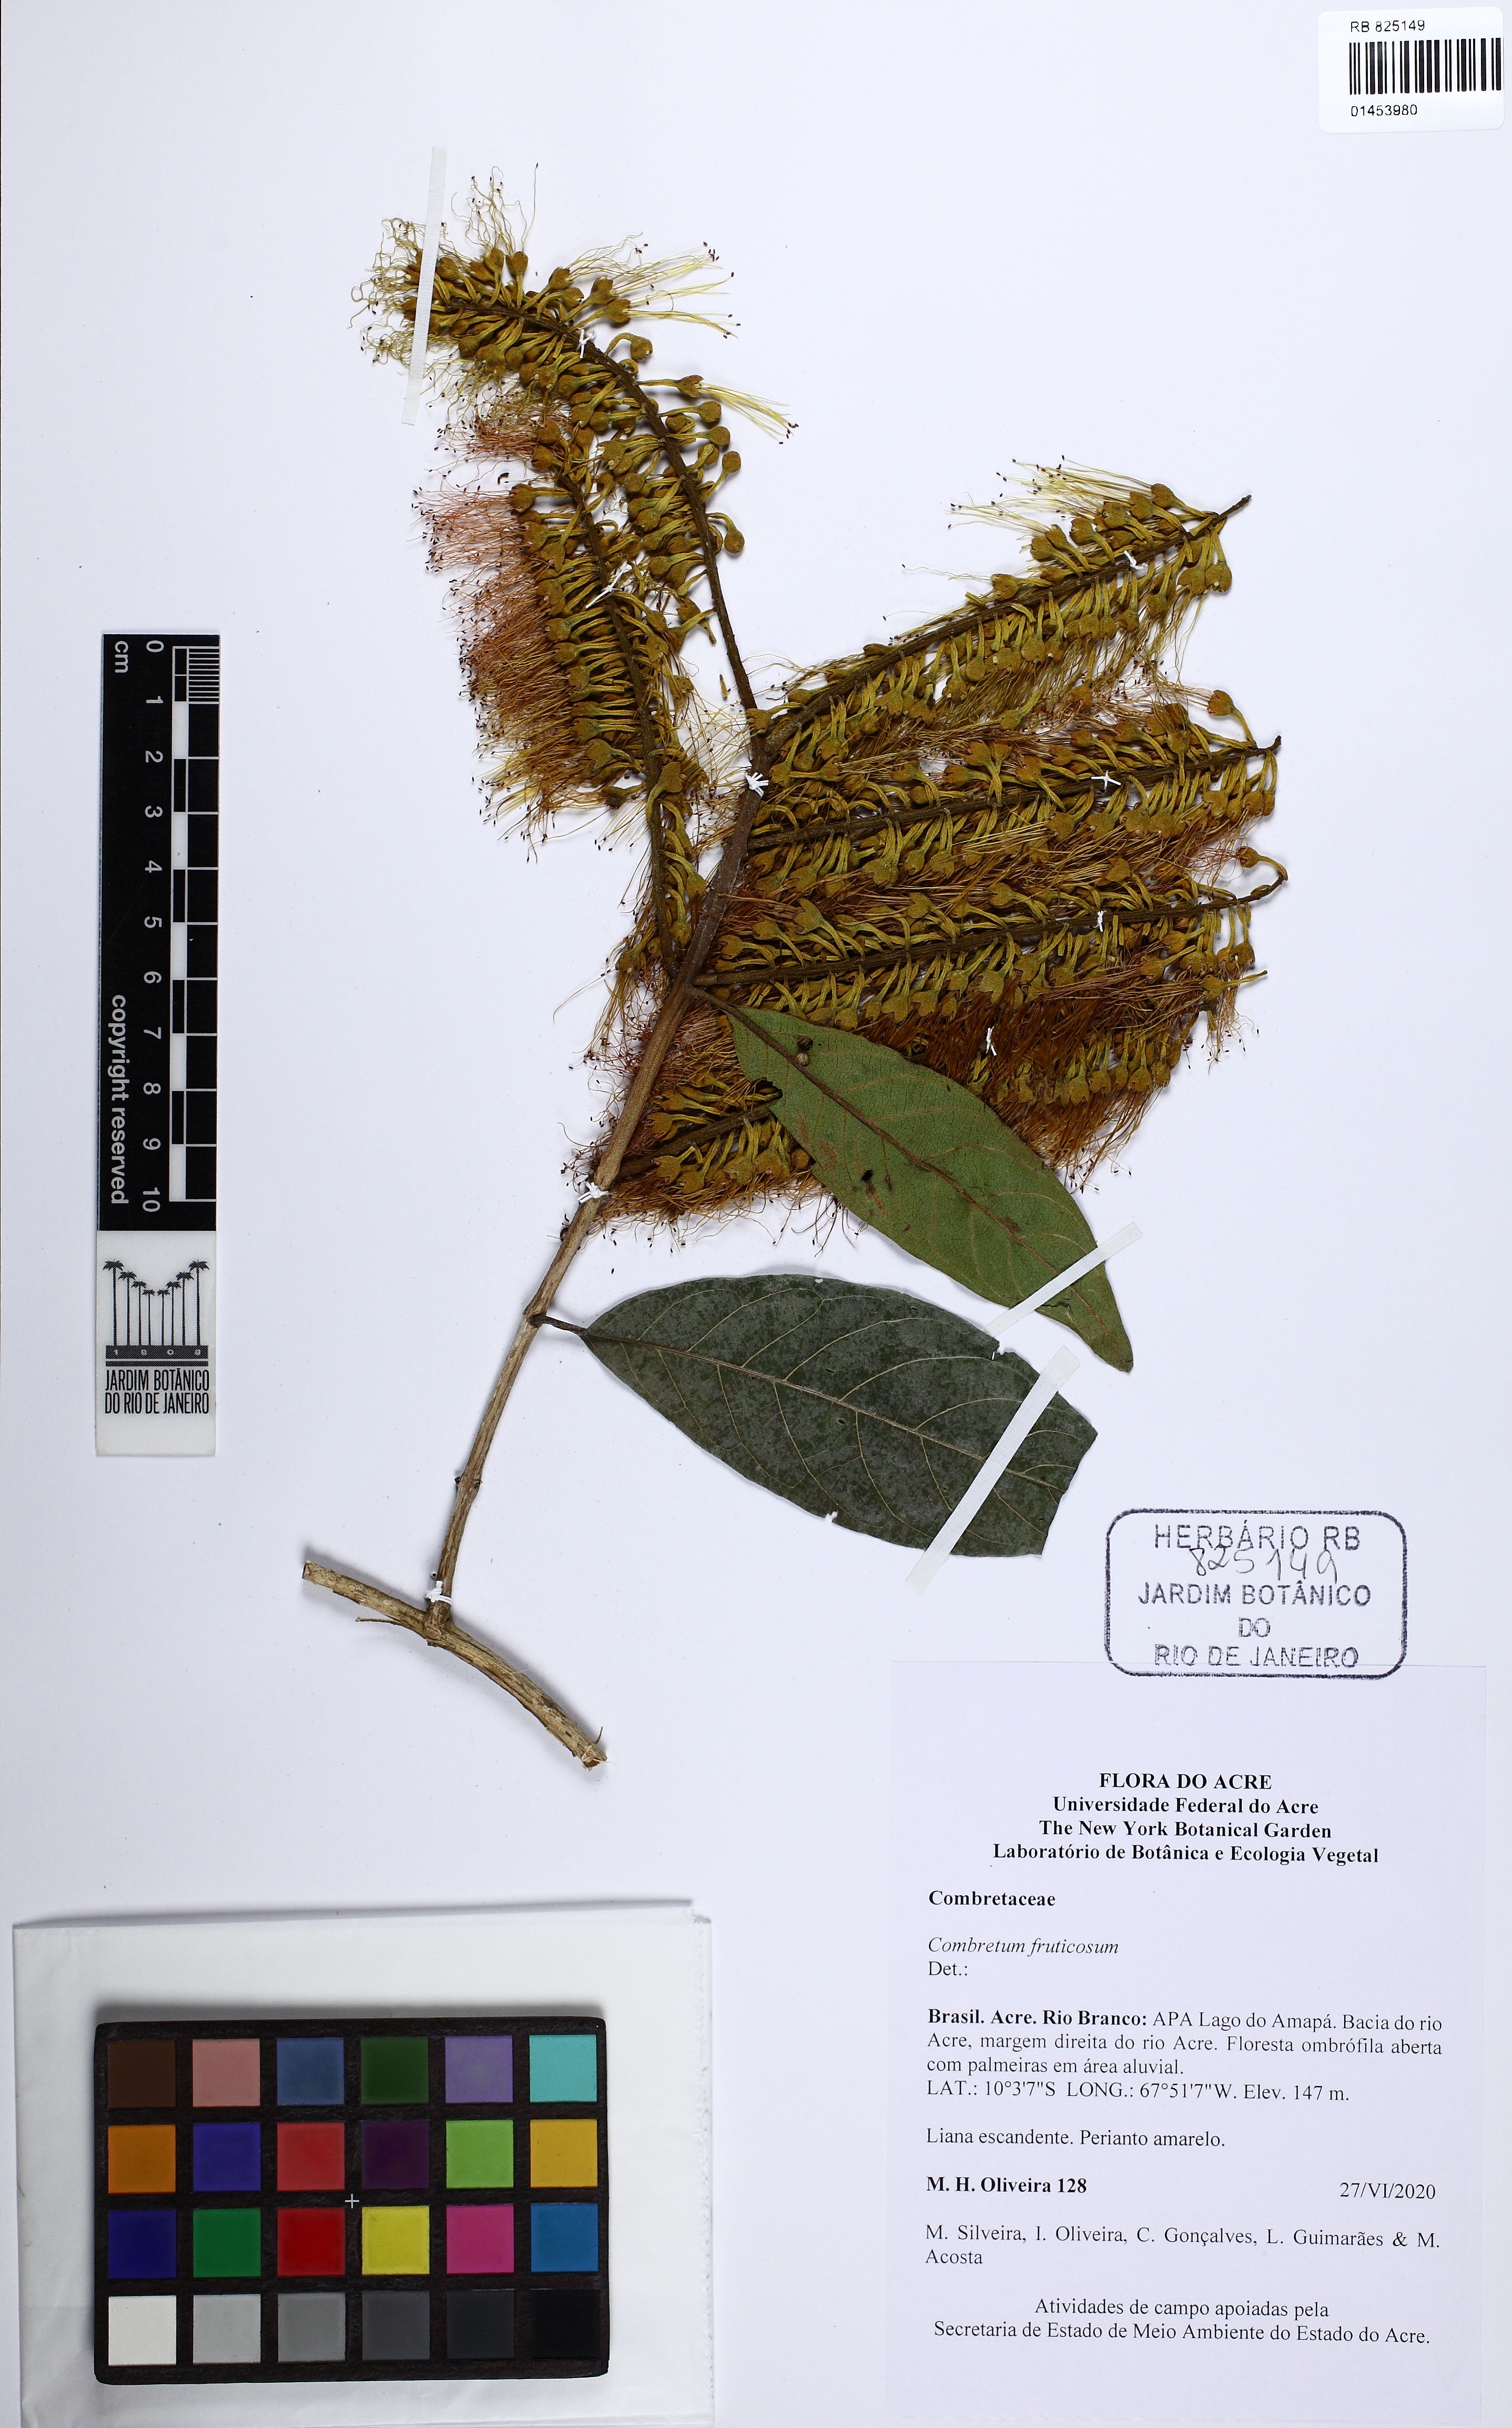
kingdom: Plantae
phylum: Tracheophyta
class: Magnoliopsida
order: Myrtales
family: Combretaceae
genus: Combretum
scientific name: Combretum fruticosum
